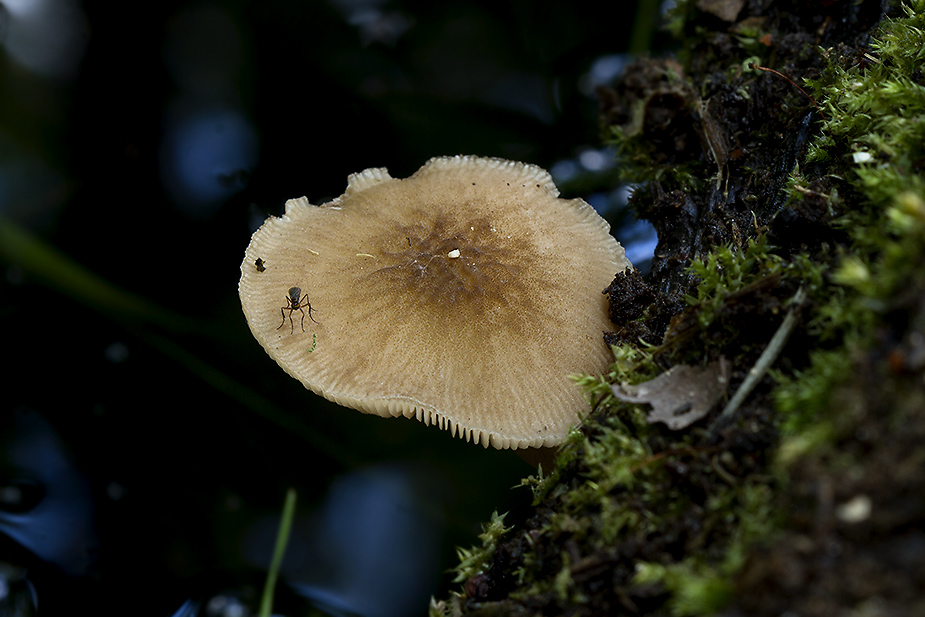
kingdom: Fungi
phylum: Basidiomycota
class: Agaricomycetes
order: Agaricales
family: Pluteaceae
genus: Pluteus
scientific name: Pluteus plautus
